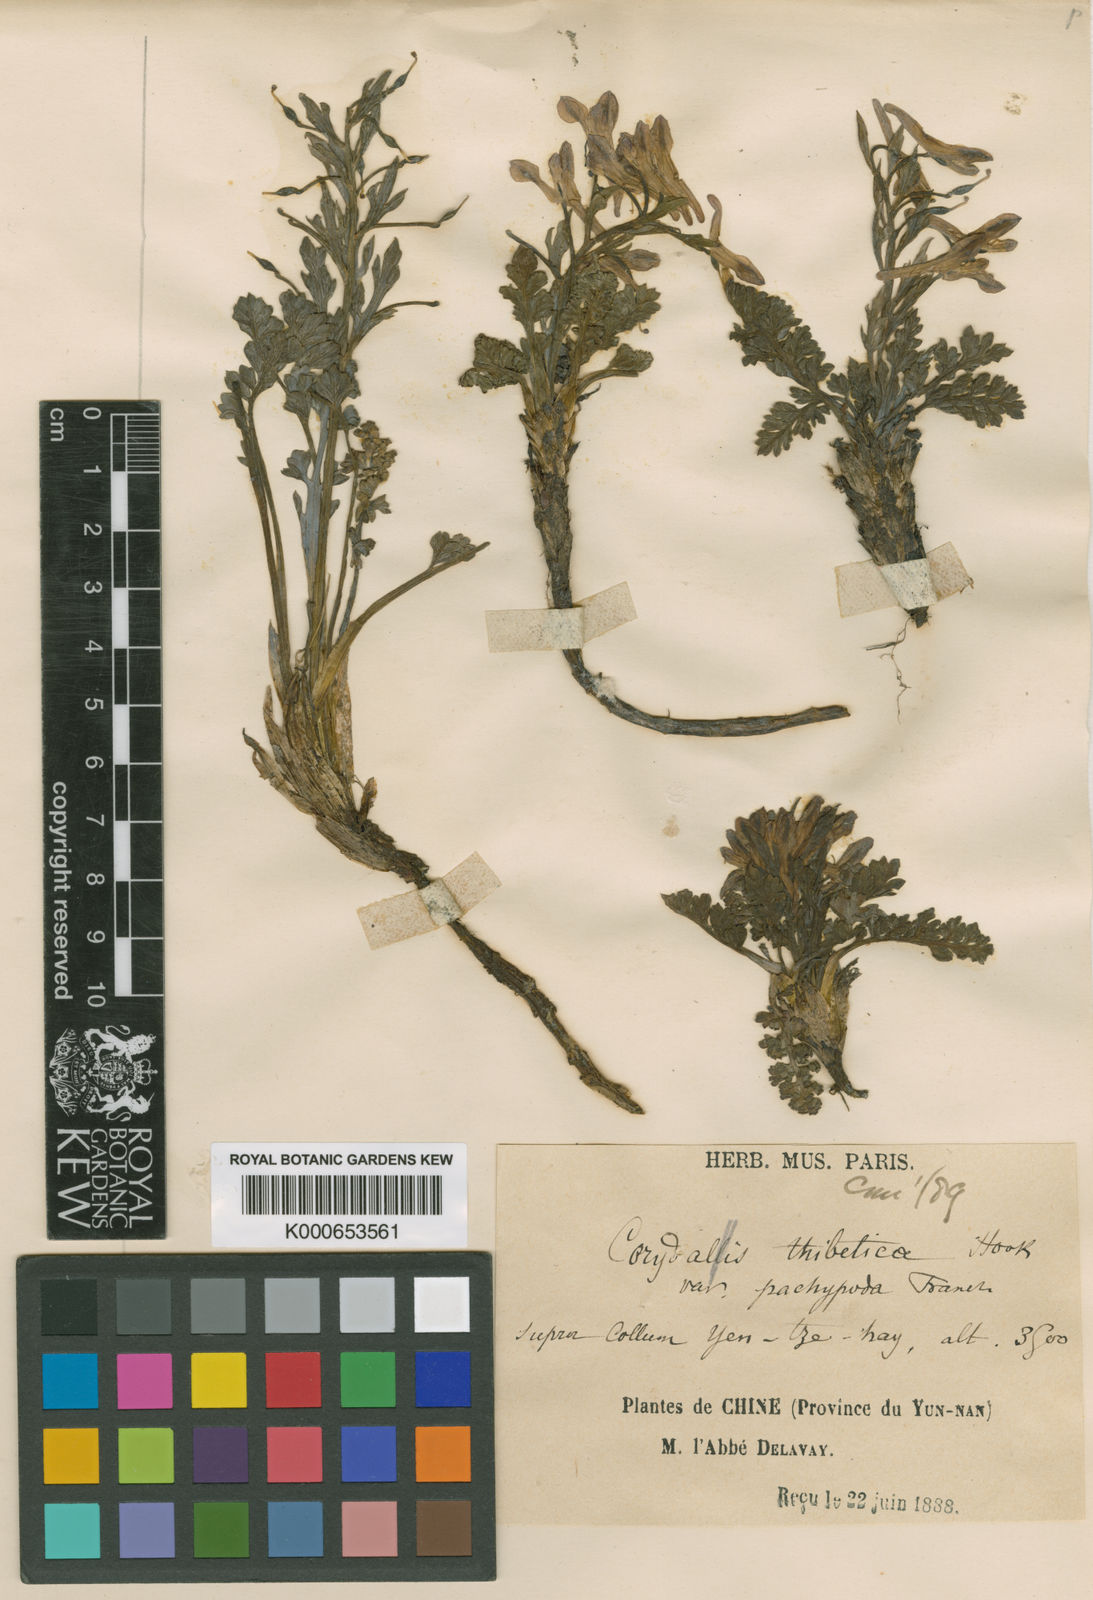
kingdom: Plantae
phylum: Tracheophyta
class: Magnoliopsida
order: Ranunculales
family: Papaveraceae
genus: Corydalis
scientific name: Corydalis tibetica
